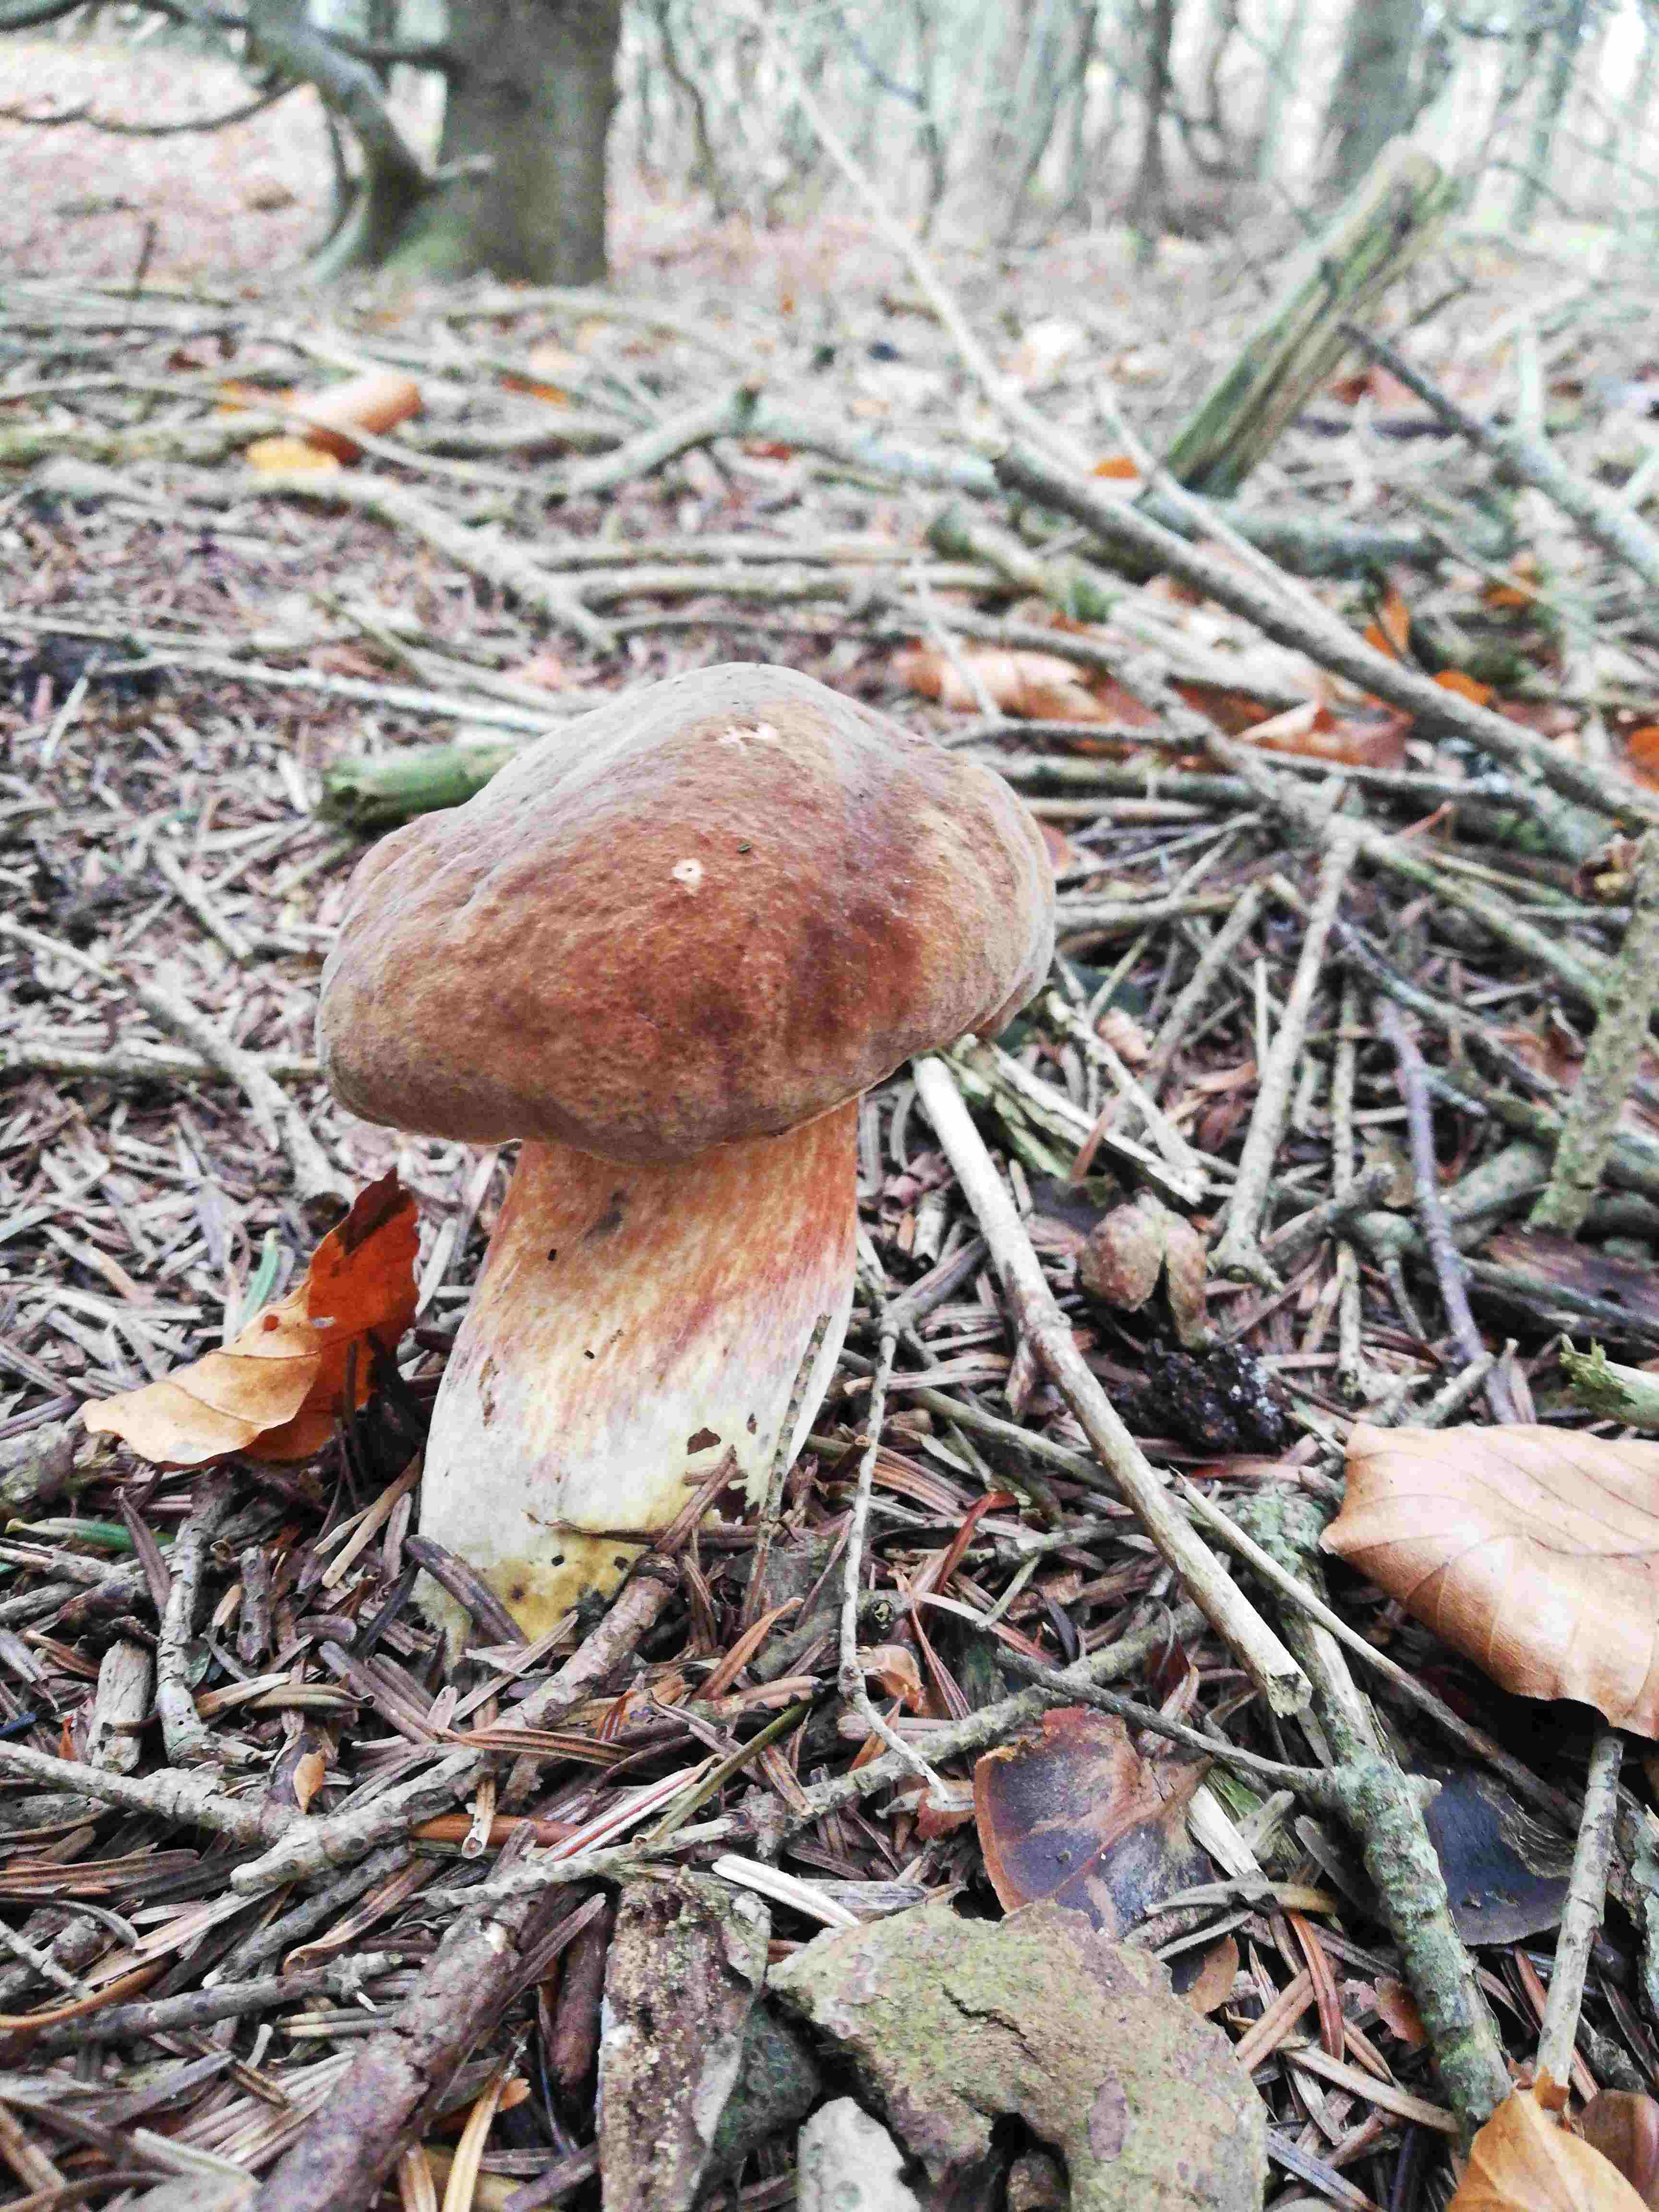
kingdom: Fungi
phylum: Basidiomycota
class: Agaricomycetes
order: Boletales
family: Boletaceae
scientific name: Boletaceae
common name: rørhatfamilien
